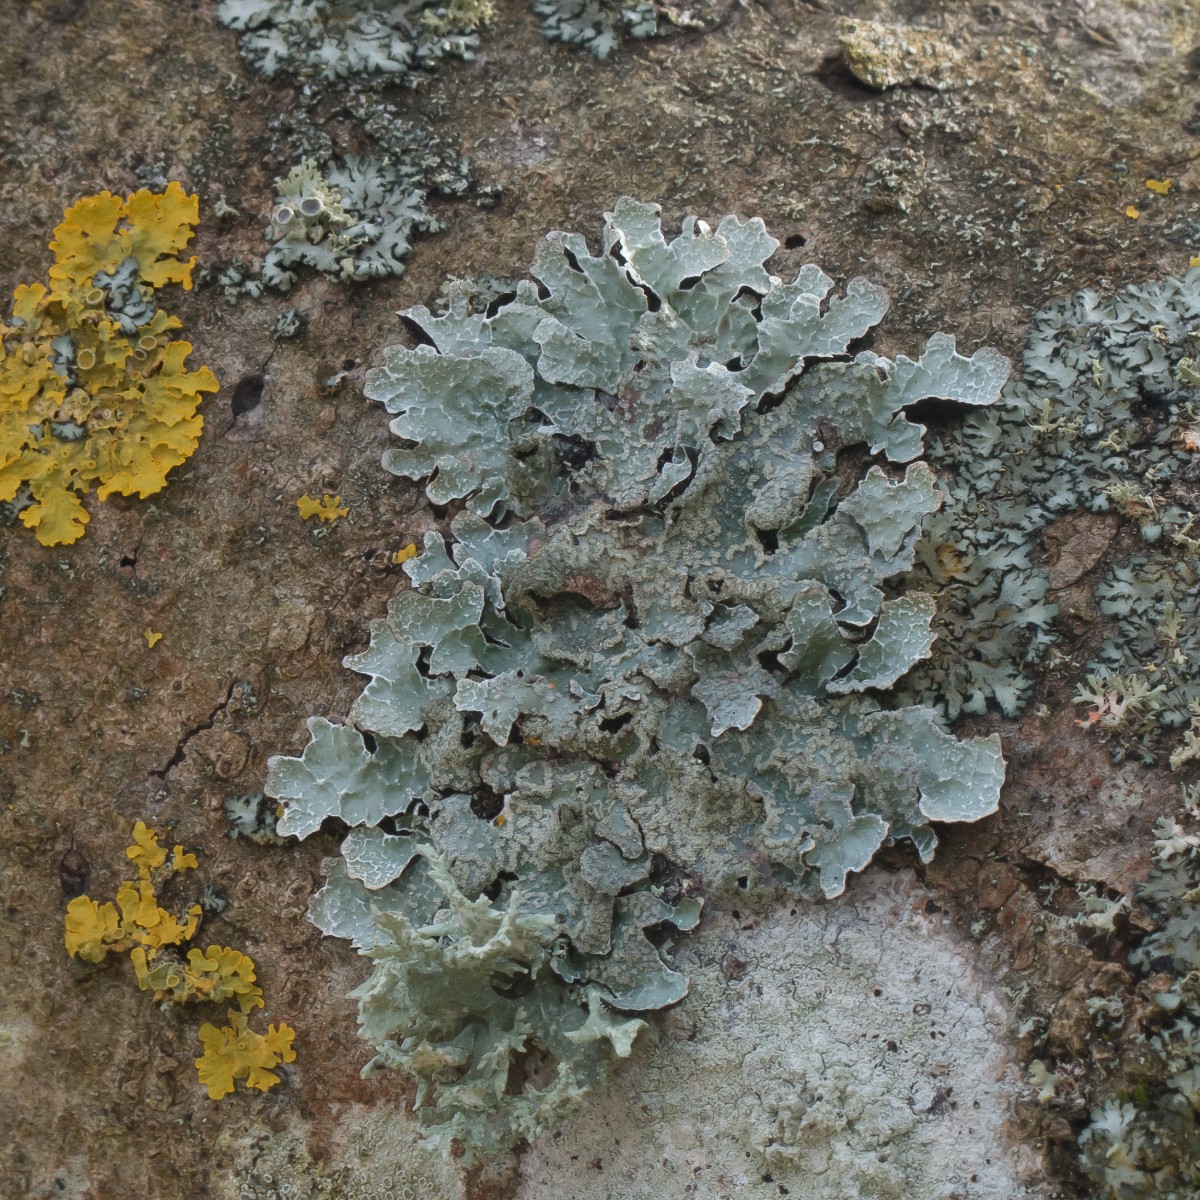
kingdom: Fungi
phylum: Ascomycota
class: Lecanoromycetes
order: Lecanorales
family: Parmeliaceae
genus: Parmelia
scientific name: Parmelia sulcata
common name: rynket skållav
